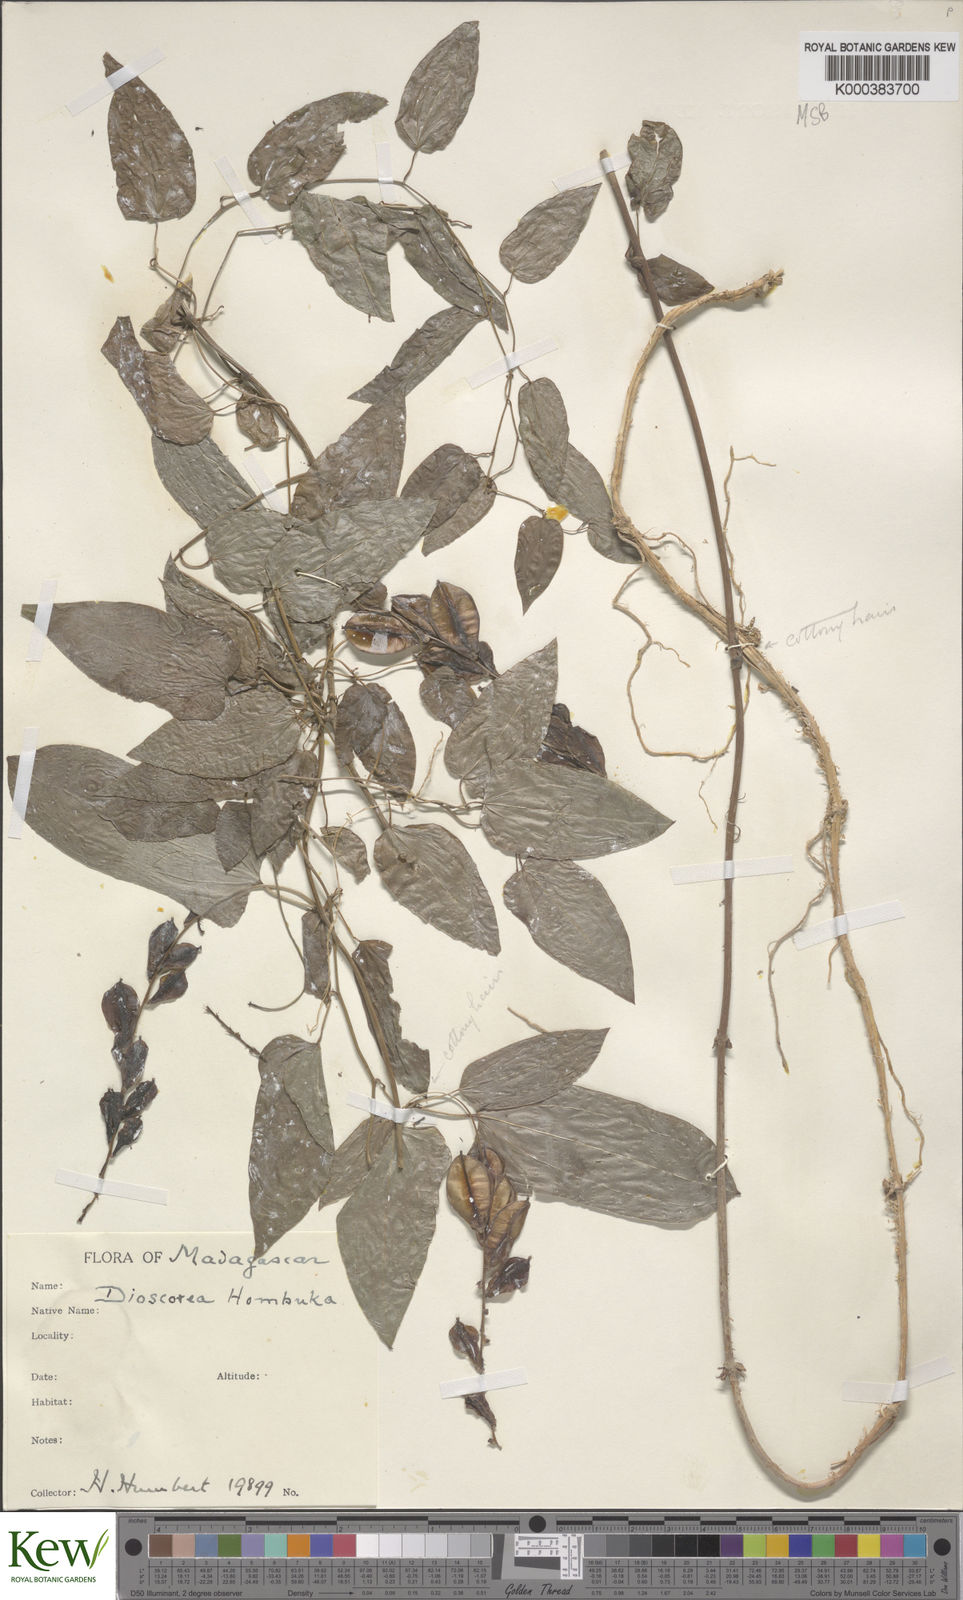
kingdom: Plantae
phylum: Tracheophyta
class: Liliopsida
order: Dioscoreales
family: Dioscoreaceae
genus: Dioscorea
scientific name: Dioscorea
